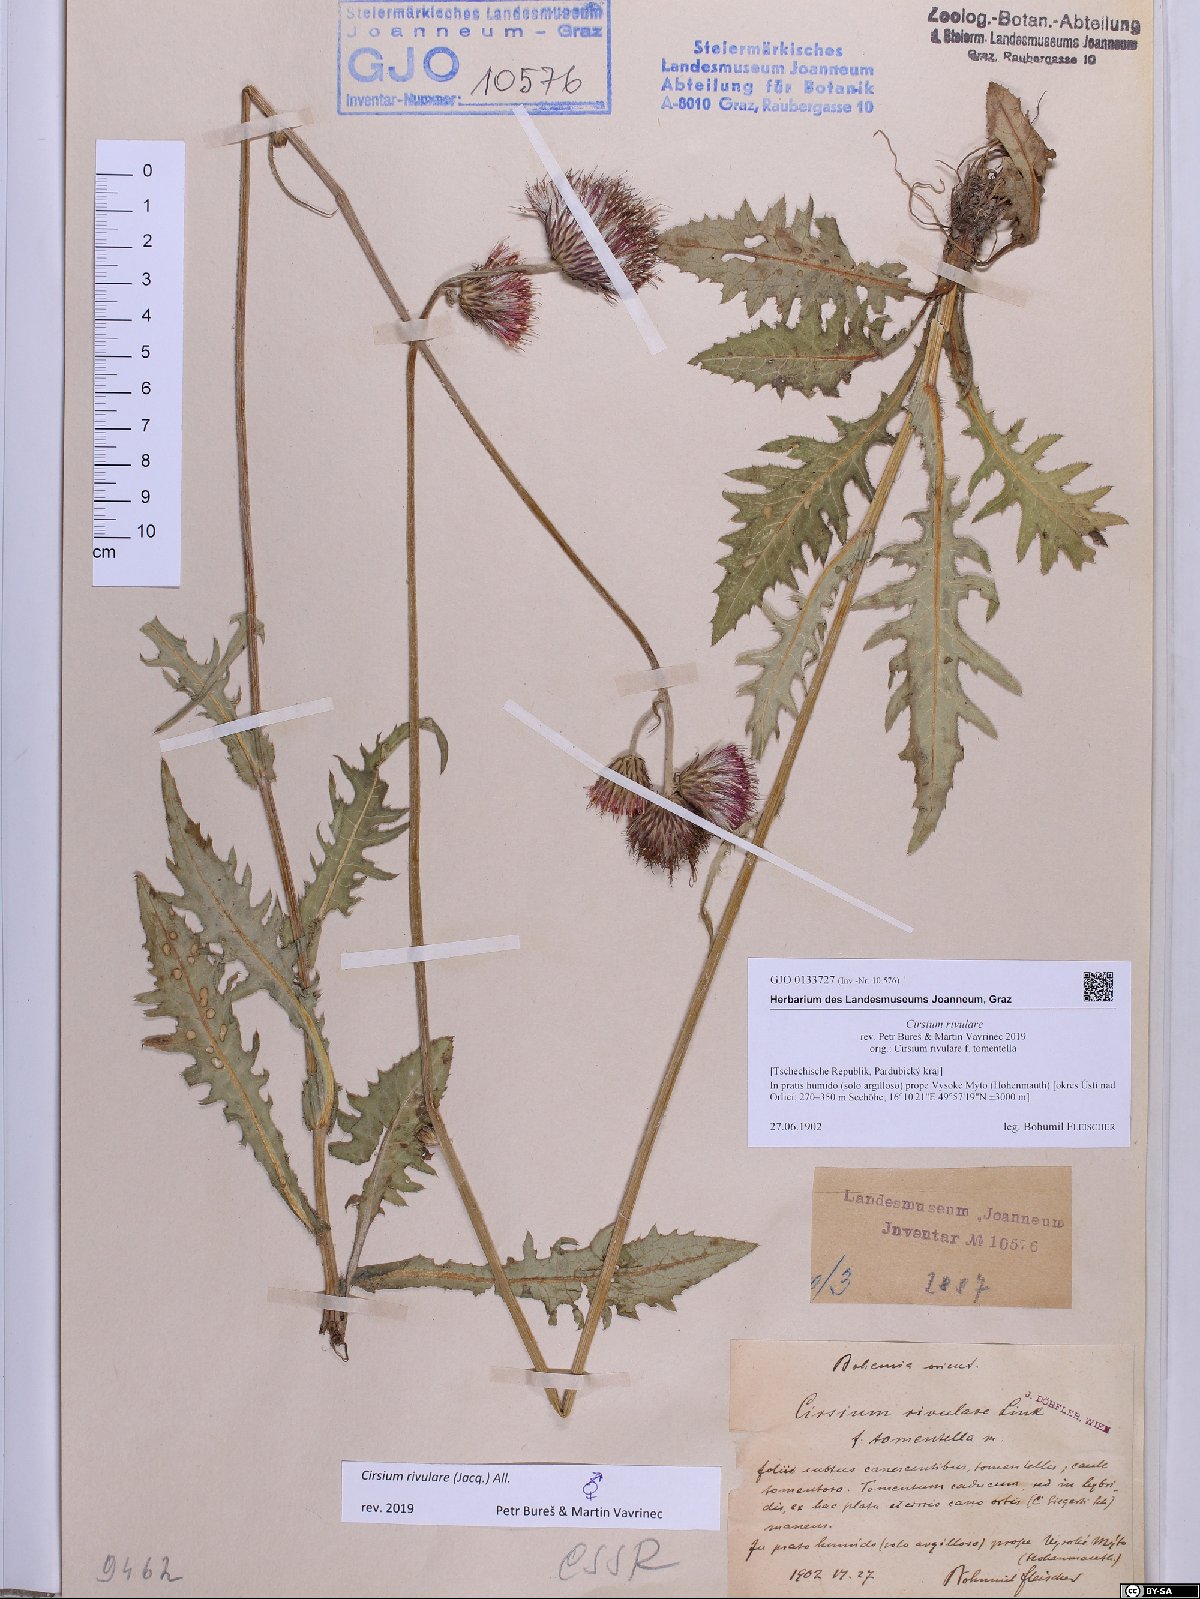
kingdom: Plantae
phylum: Tracheophyta
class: Magnoliopsida
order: Asterales
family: Asteraceae
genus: Cirsium
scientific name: Cirsium rivulare
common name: Brook thistle
